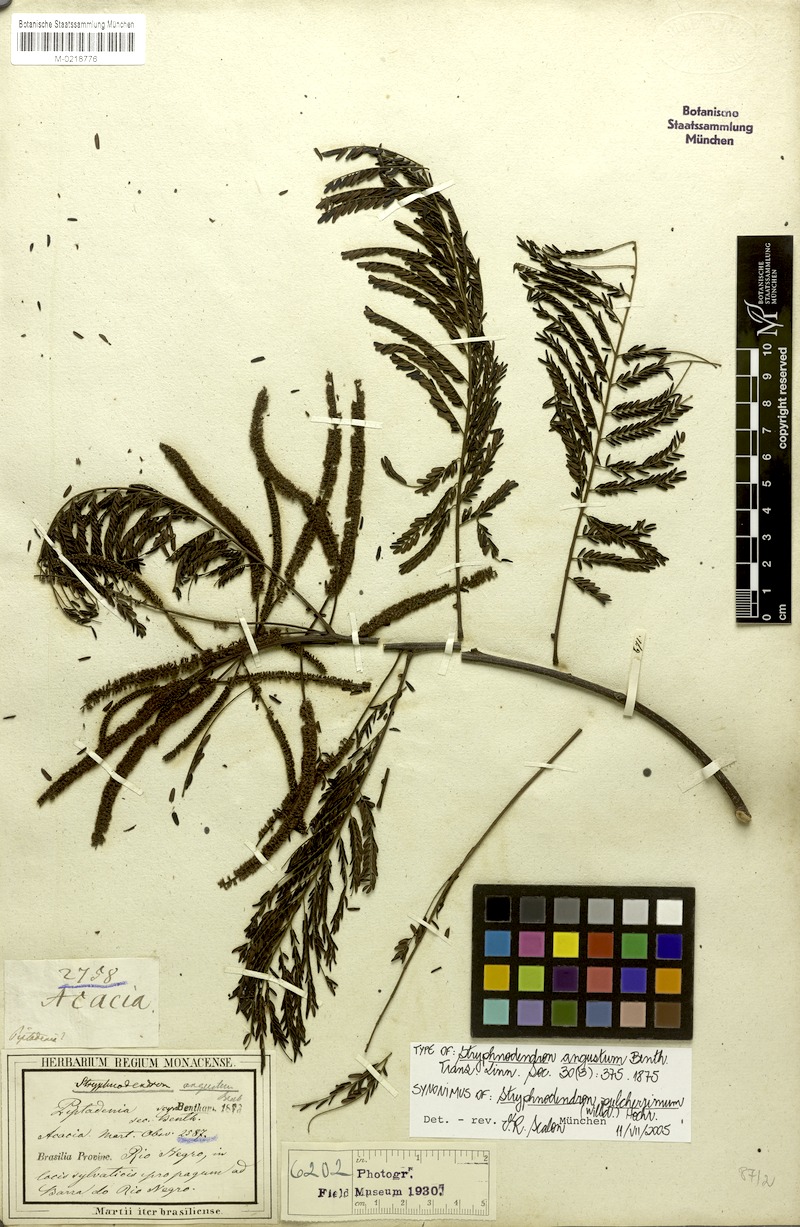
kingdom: Plantae
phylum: Tracheophyta
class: Magnoliopsida
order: Fabales
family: Fabaceae
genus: Stryphnodendron
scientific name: Stryphnodendron pulcherrimum
